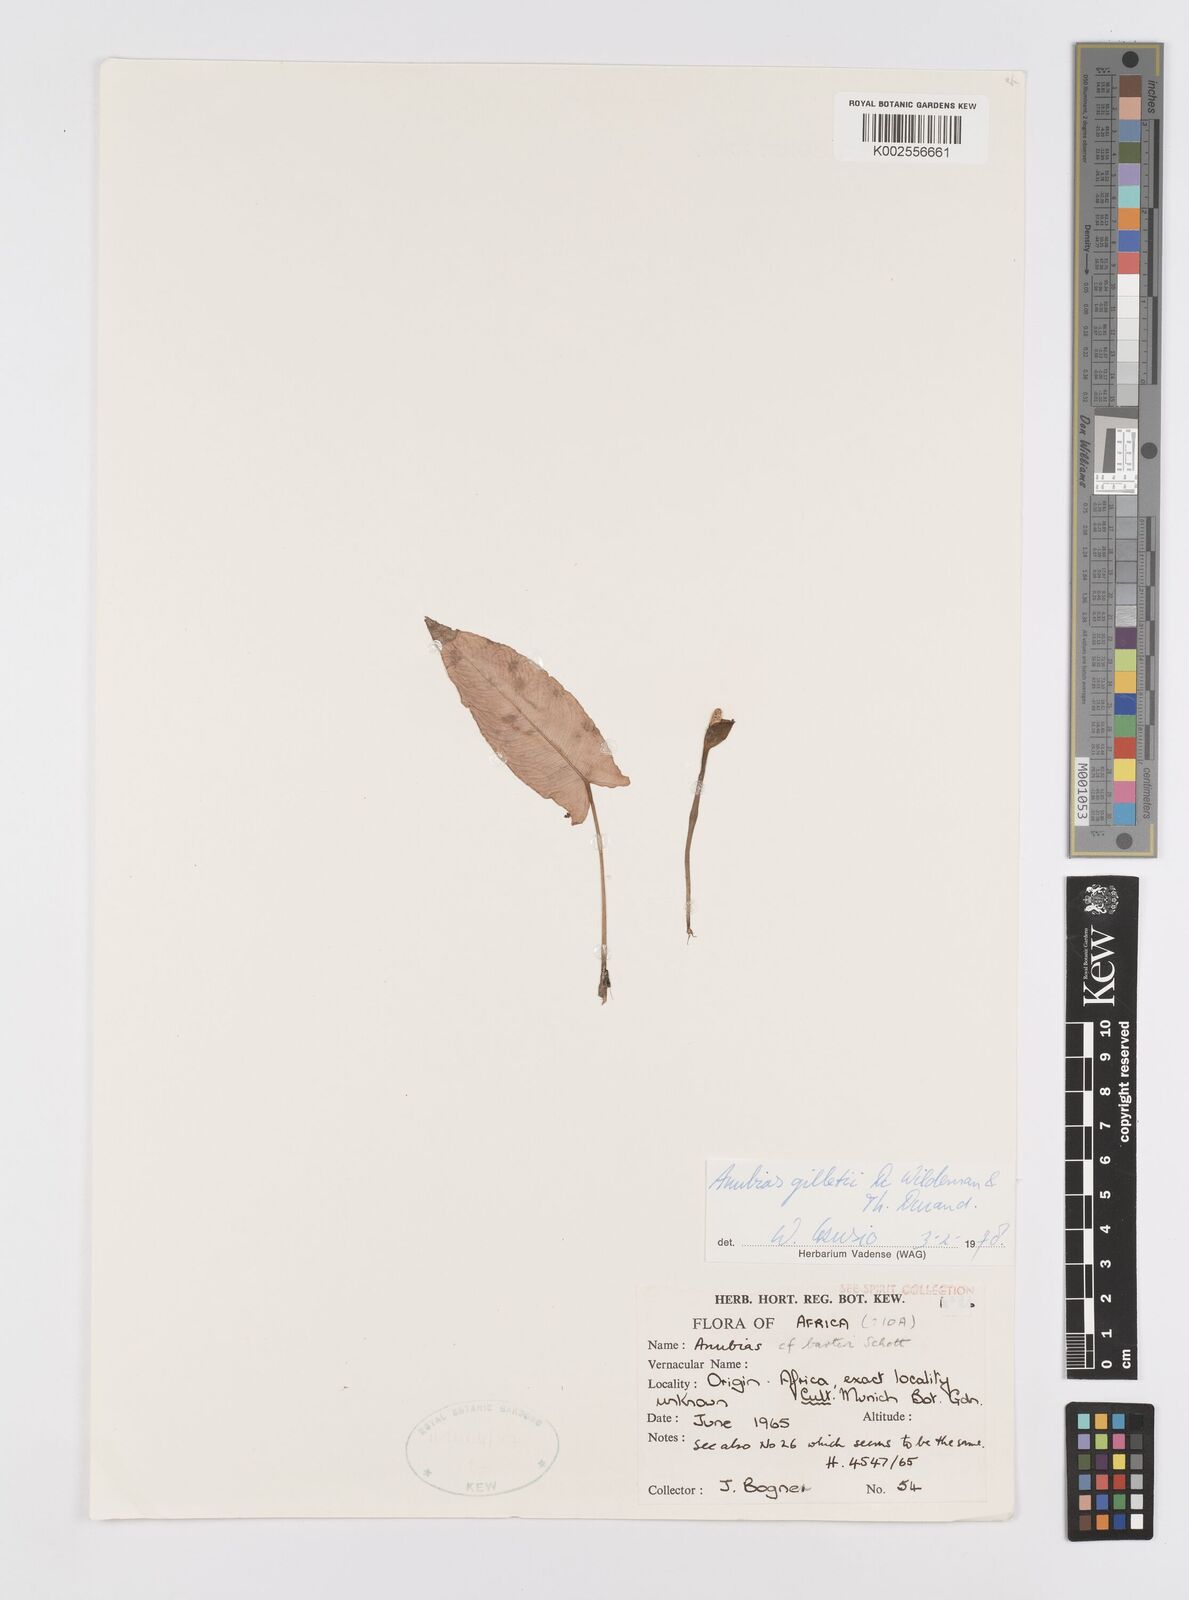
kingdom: Plantae
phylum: Tracheophyta
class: Liliopsida
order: Alismatales
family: Araceae
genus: Anubias
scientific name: Anubias gilletii
